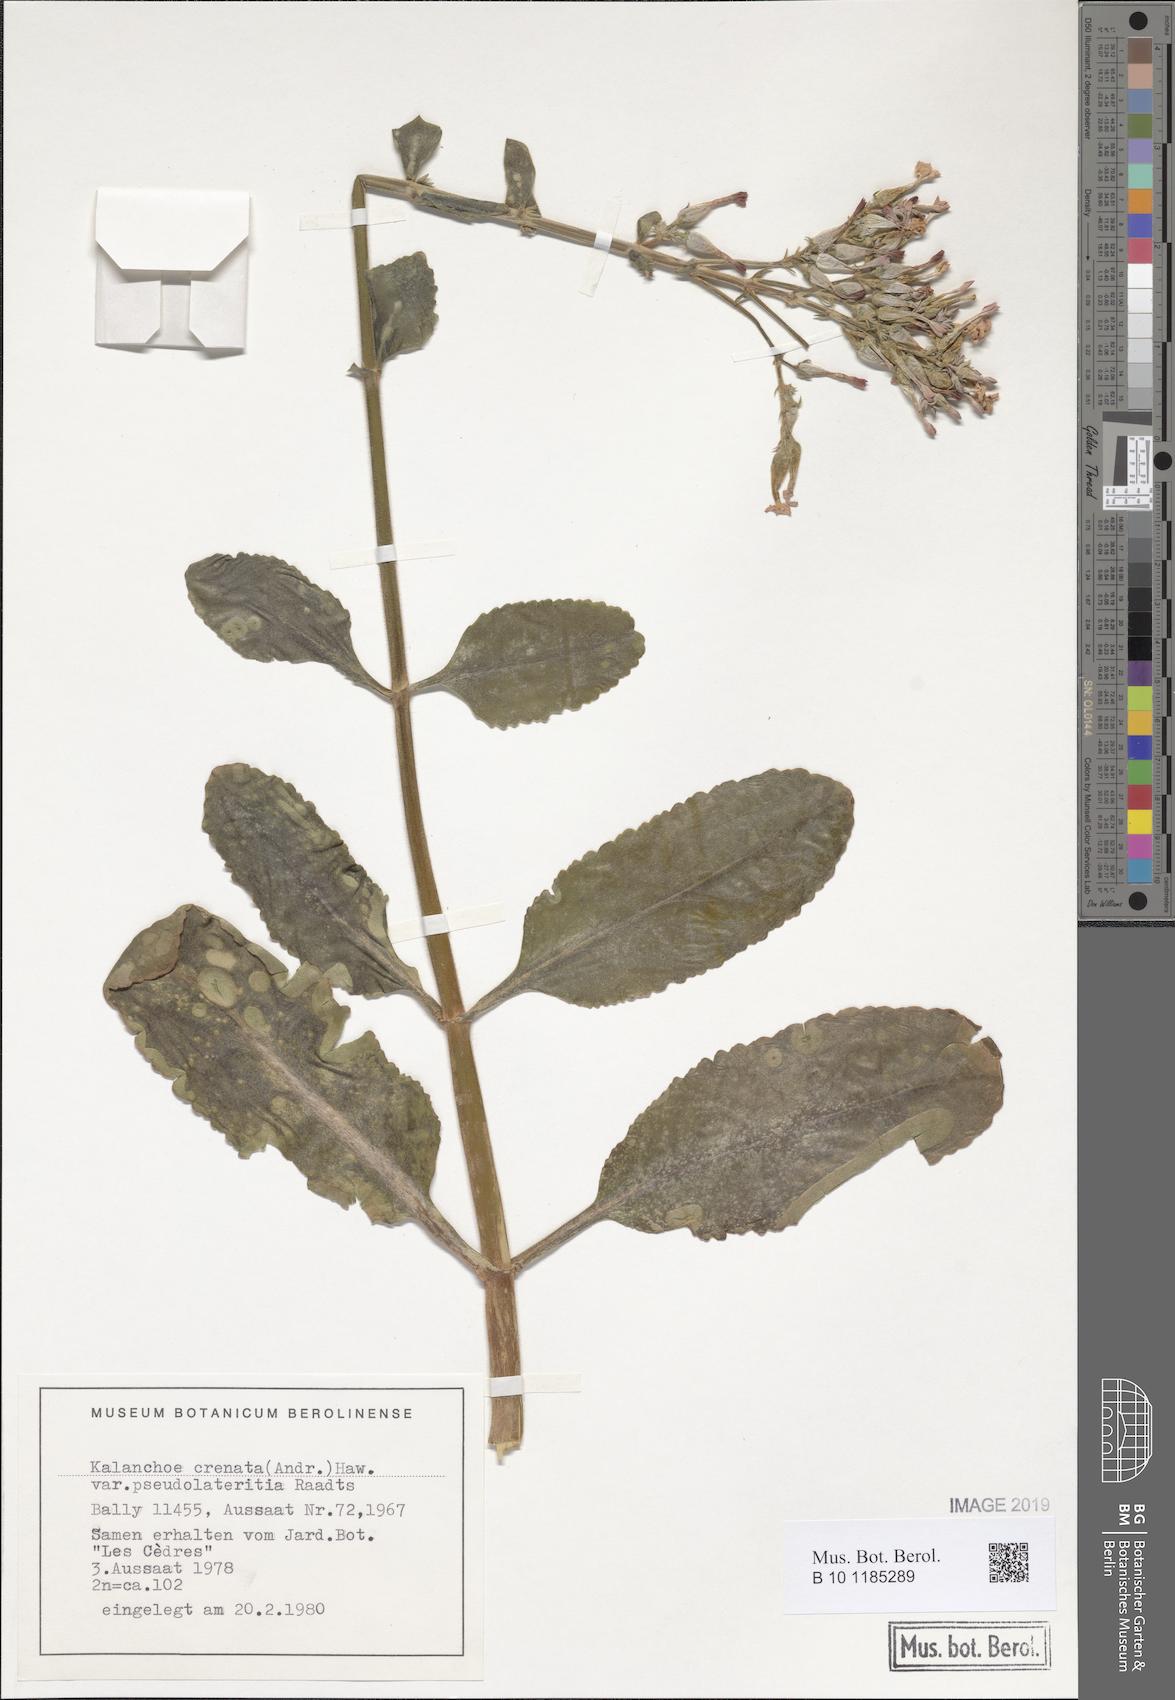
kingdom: Plantae
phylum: Tracheophyta
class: Magnoliopsida
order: Saxifragales
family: Crassulaceae
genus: Kalanchoe
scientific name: Kalanchoe lateritia
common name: Kalanchoe
